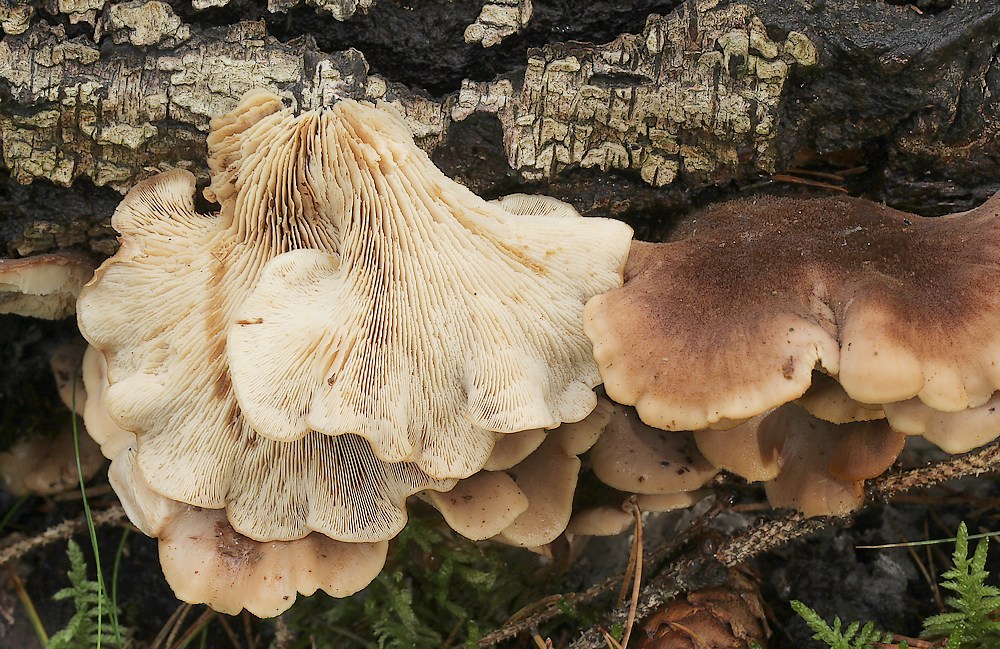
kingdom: Fungi
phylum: Basidiomycota
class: Agaricomycetes
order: Russulales
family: Auriscalpiaceae
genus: Lentinellus
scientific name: Lentinellus ursinus
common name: børstehåret savbladhat
